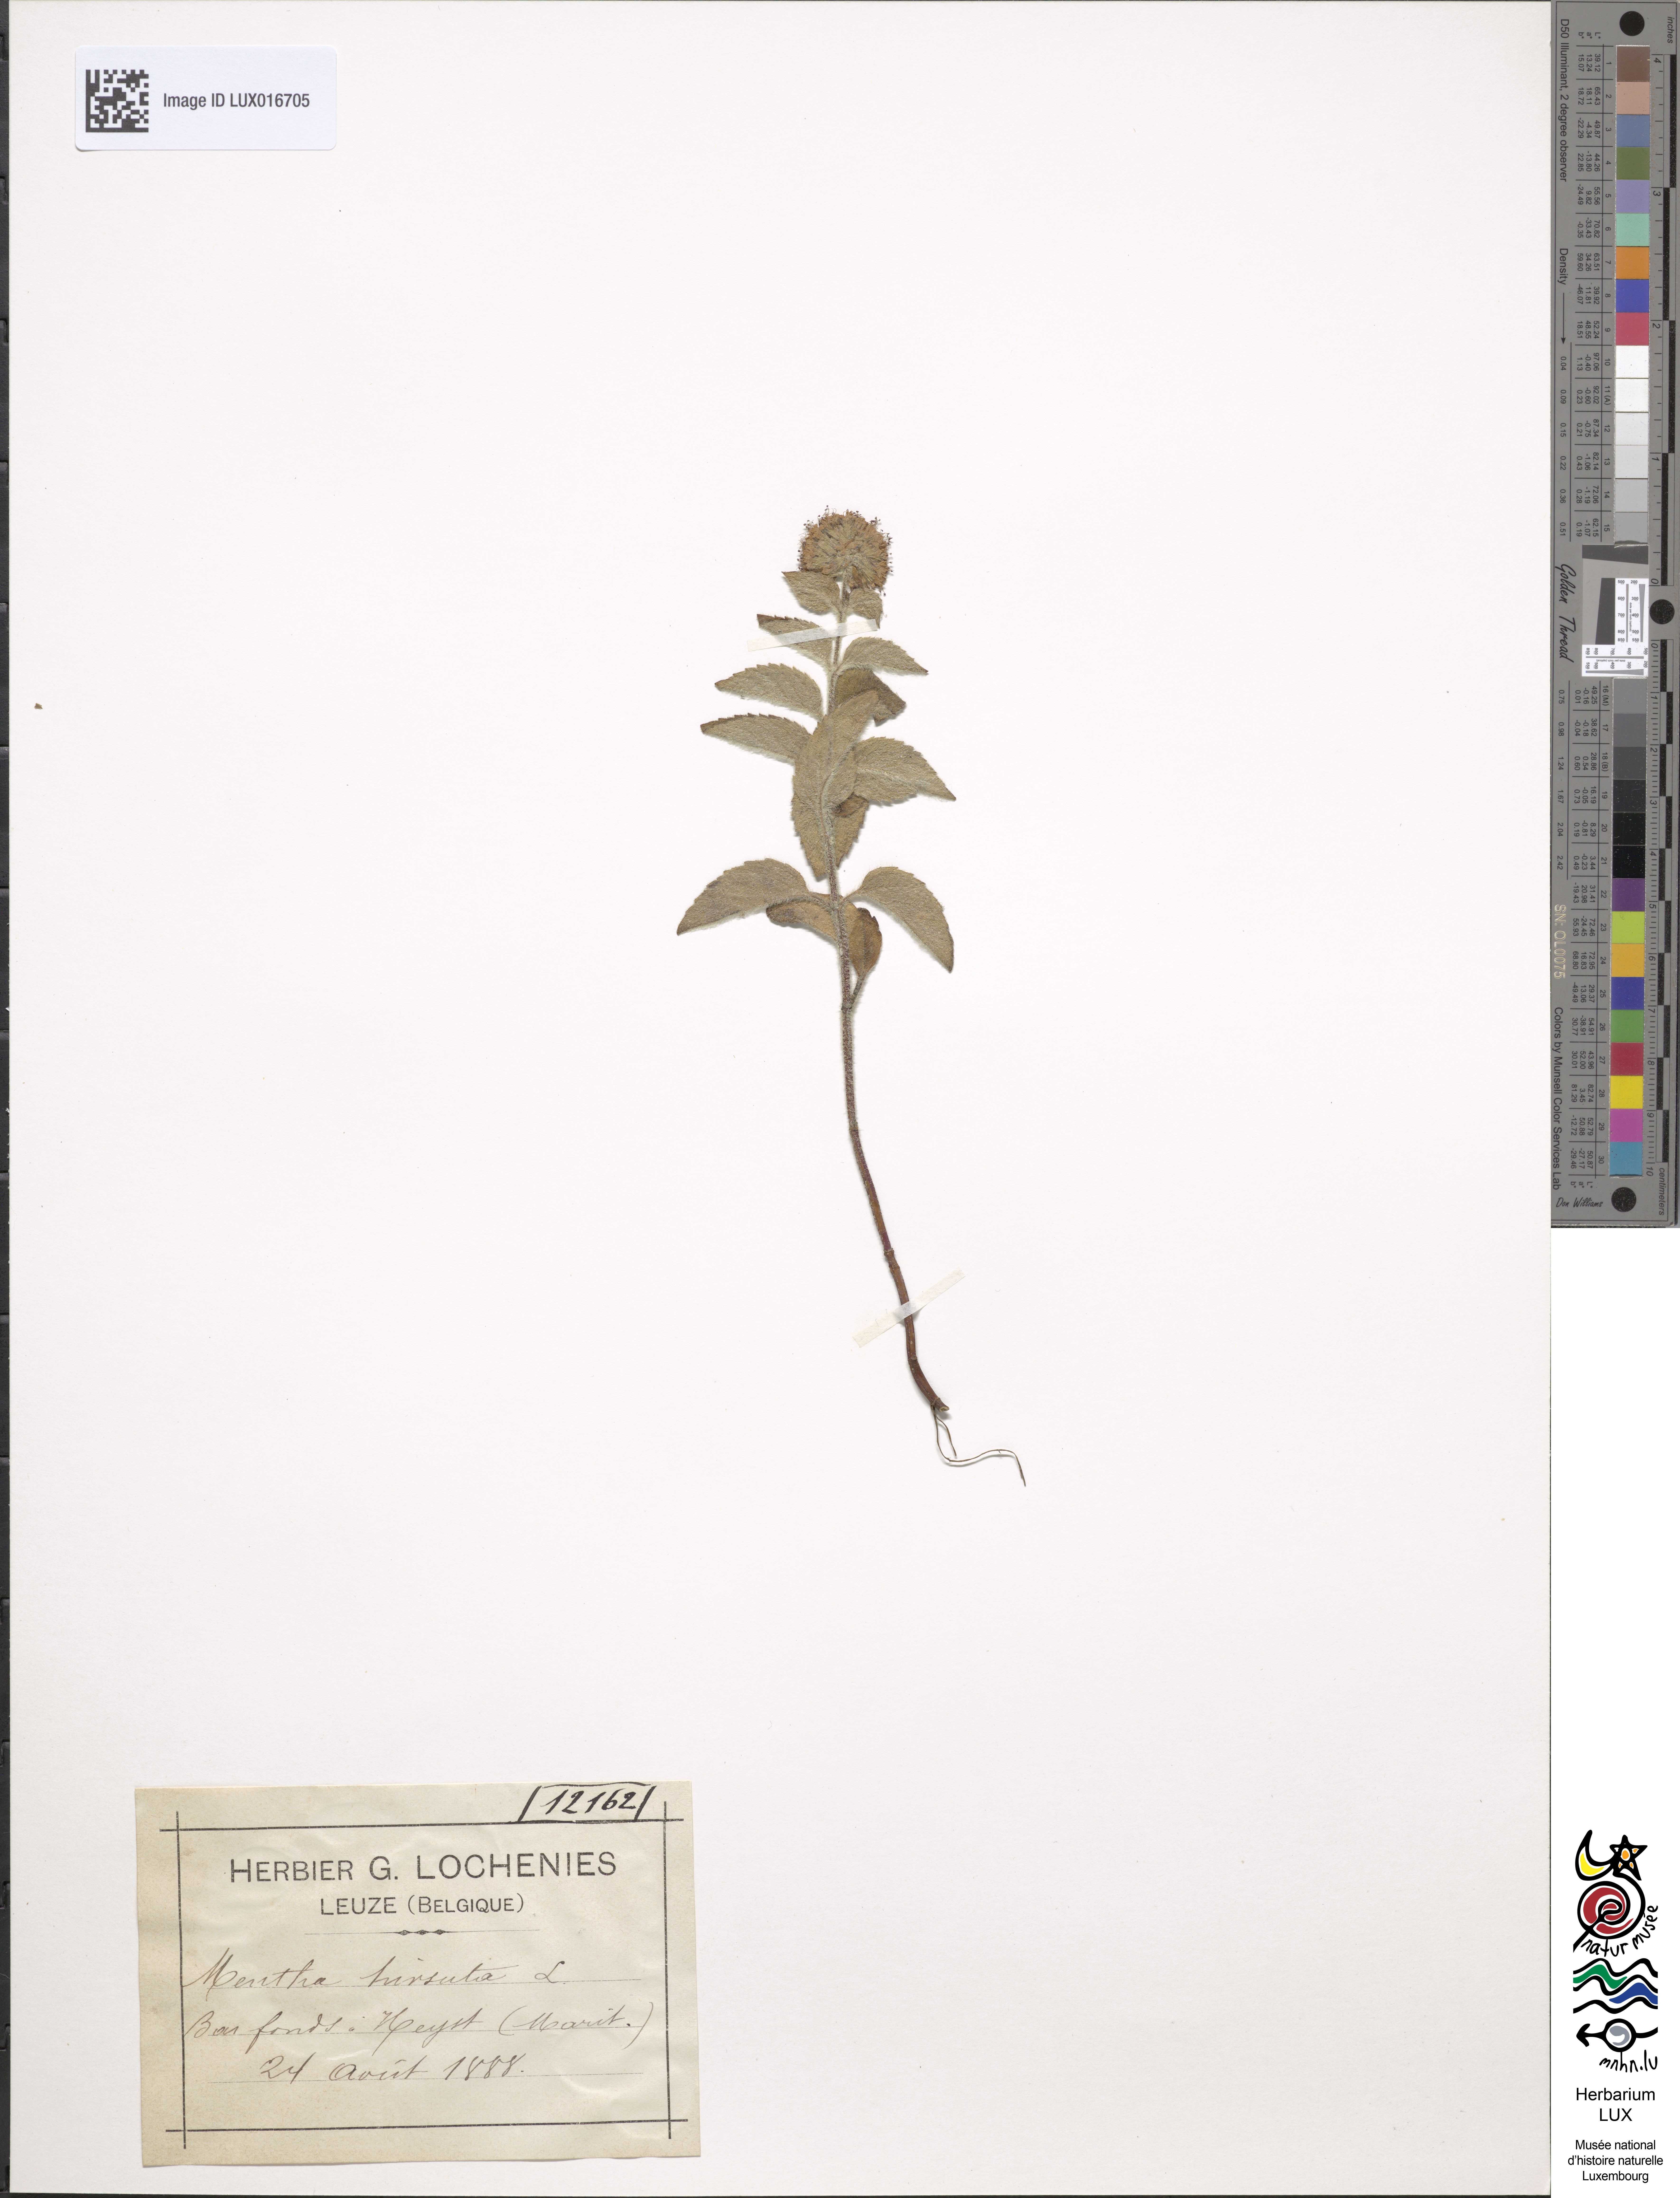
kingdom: Plantae
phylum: Tracheophyta
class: Magnoliopsida
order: Lamiales
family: Lamiaceae
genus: Mentha
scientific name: Mentha aquatica
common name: Water mint
